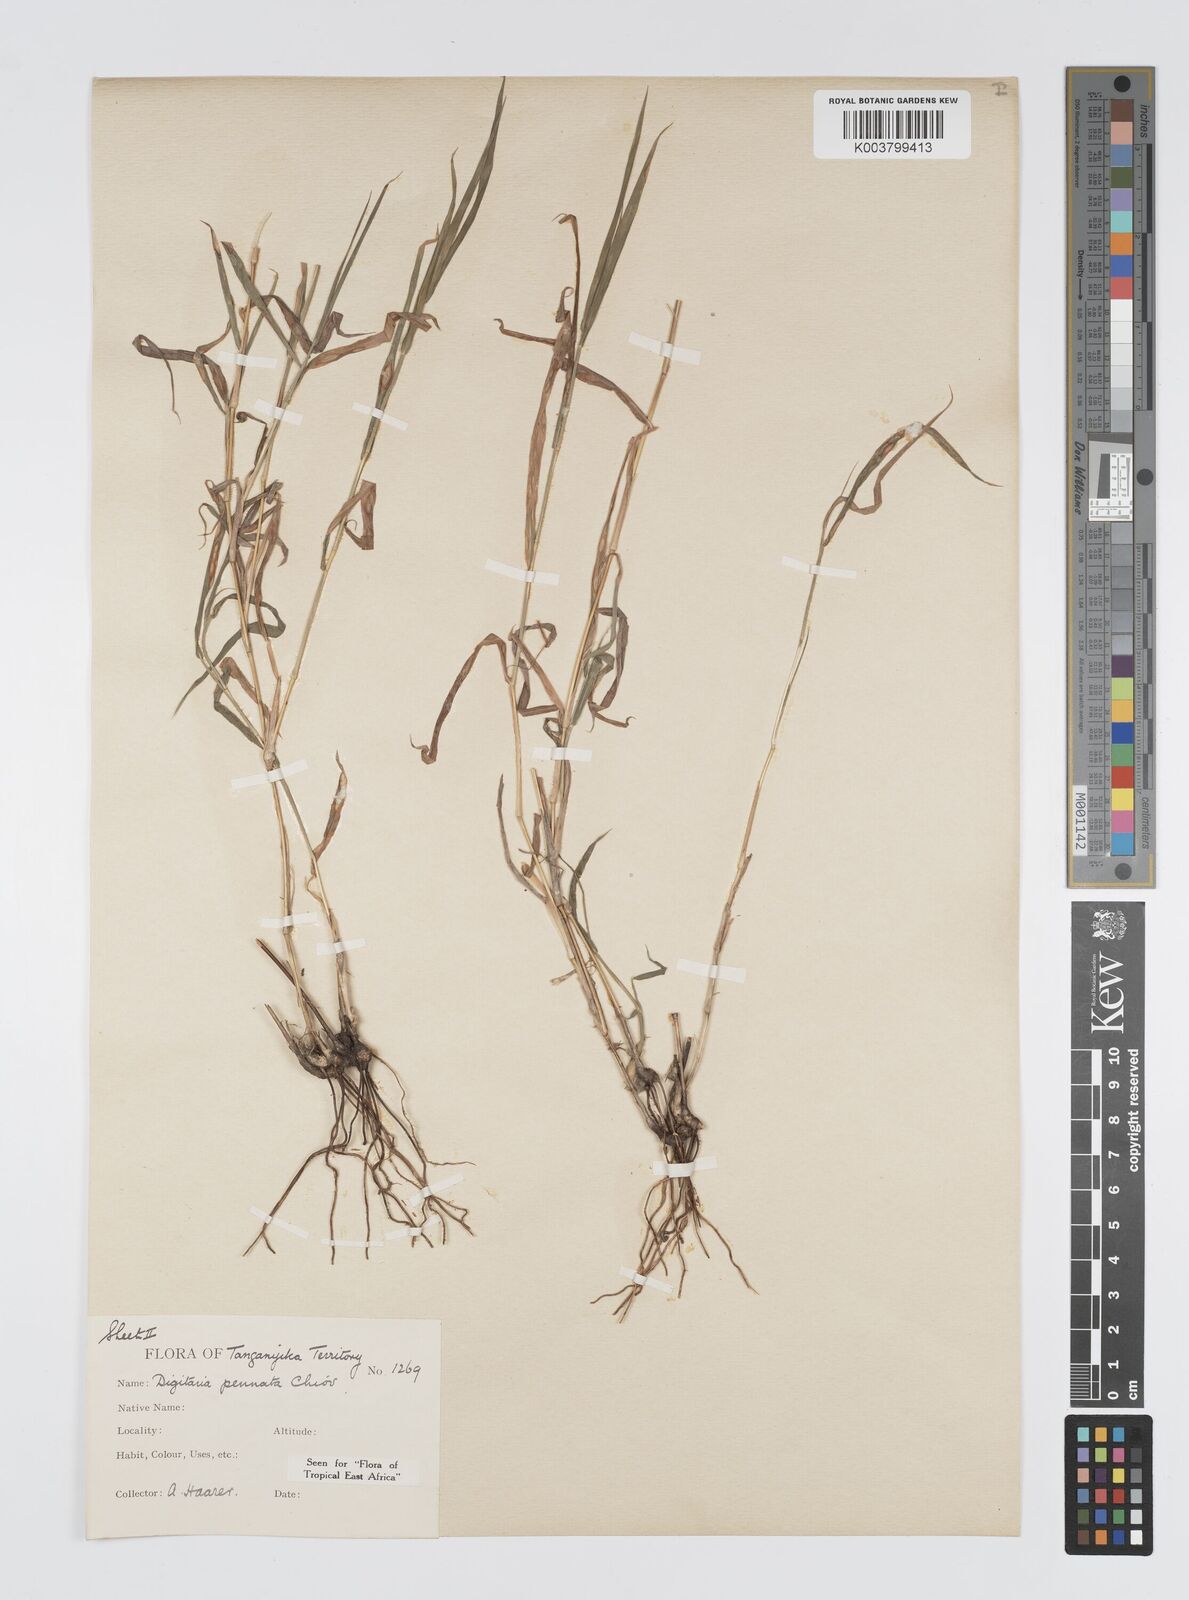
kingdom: Plantae
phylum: Tracheophyta
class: Liliopsida
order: Poales
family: Poaceae
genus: Digitaria
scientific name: Digitaria pennata
